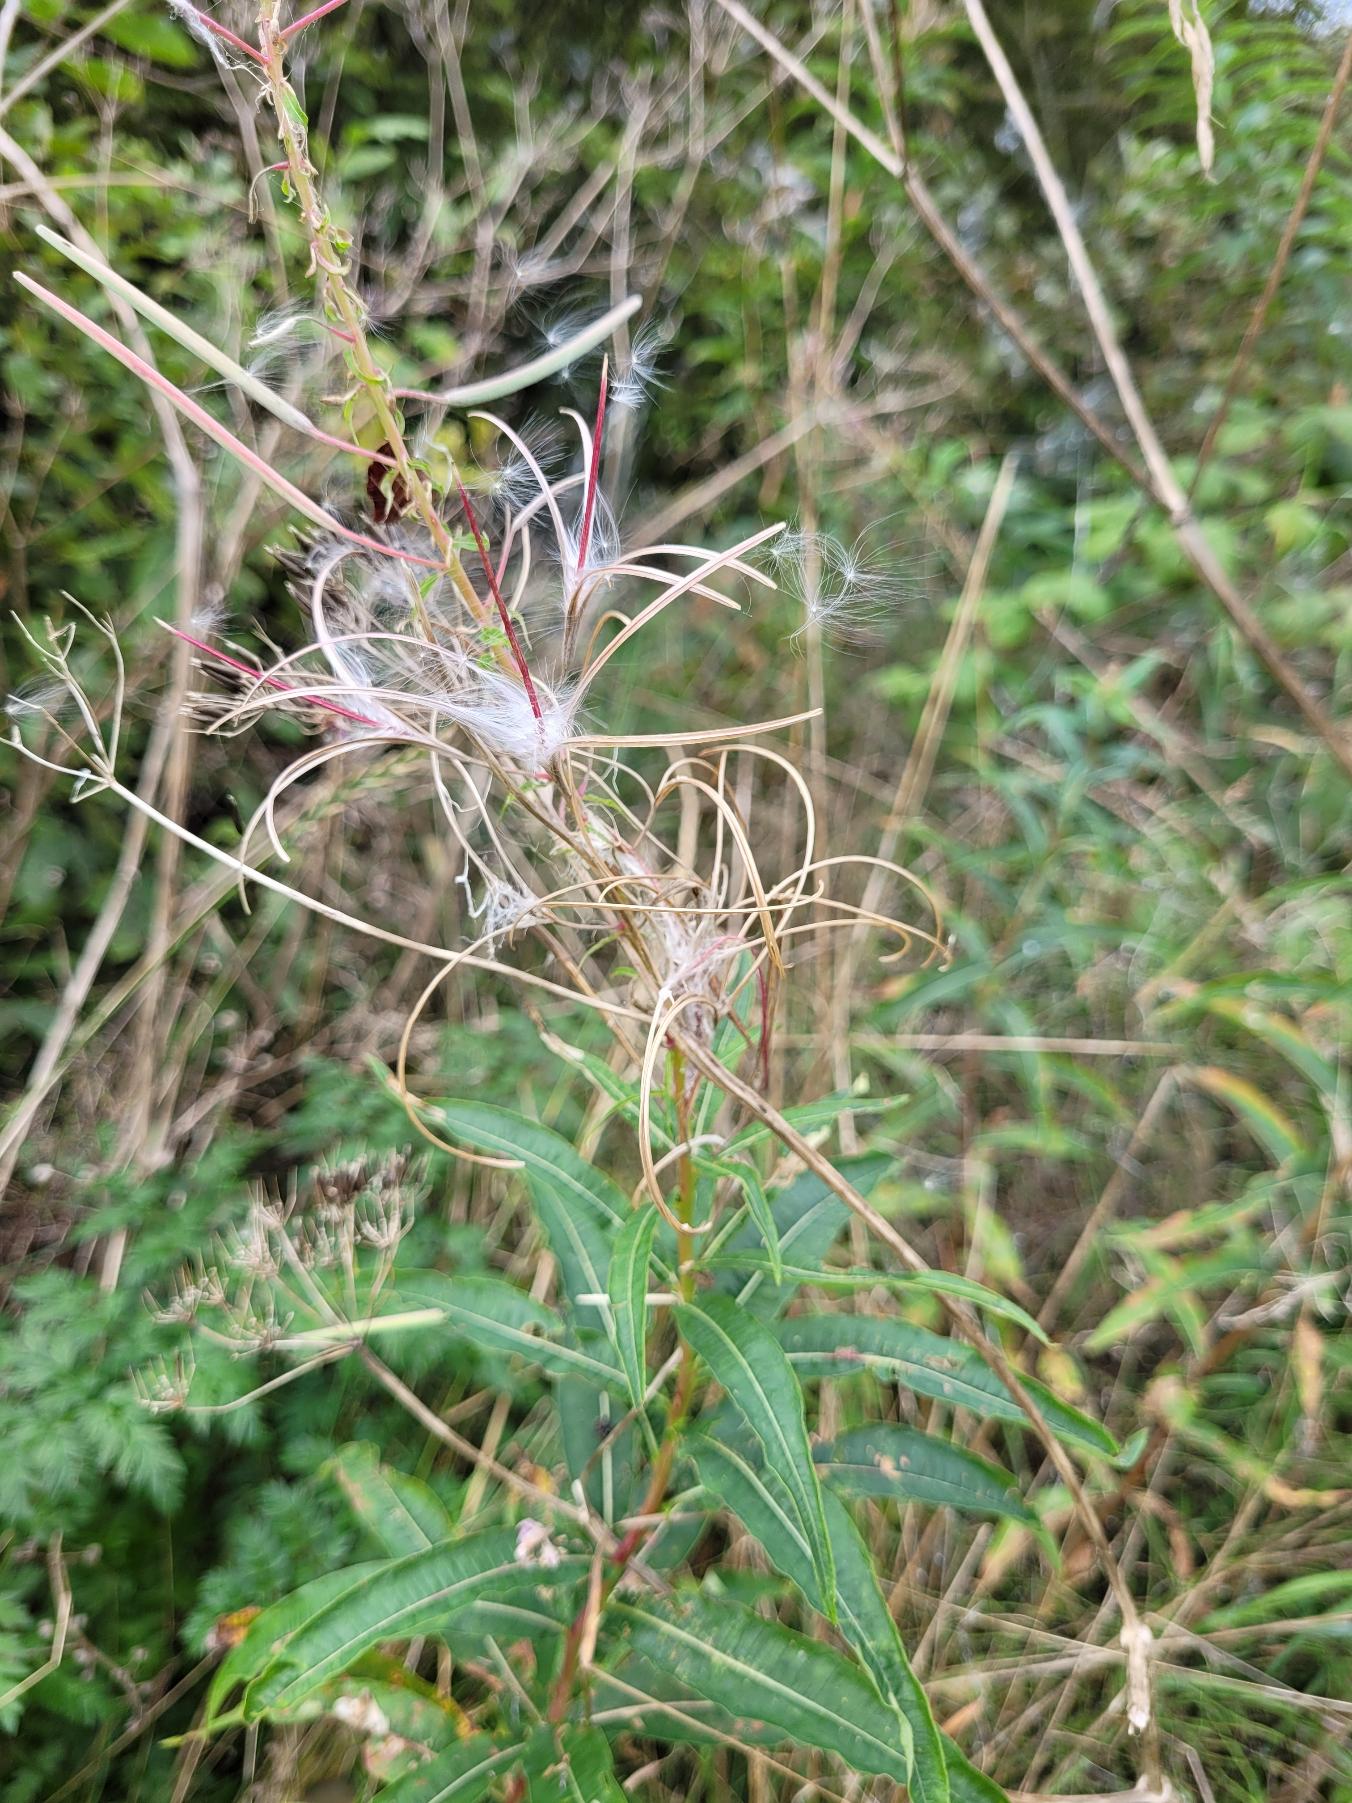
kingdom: Plantae
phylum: Tracheophyta
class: Magnoliopsida
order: Myrtales
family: Onagraceae
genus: Chamaenerion
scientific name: Chamaenerion angustifolium
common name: Gederams
